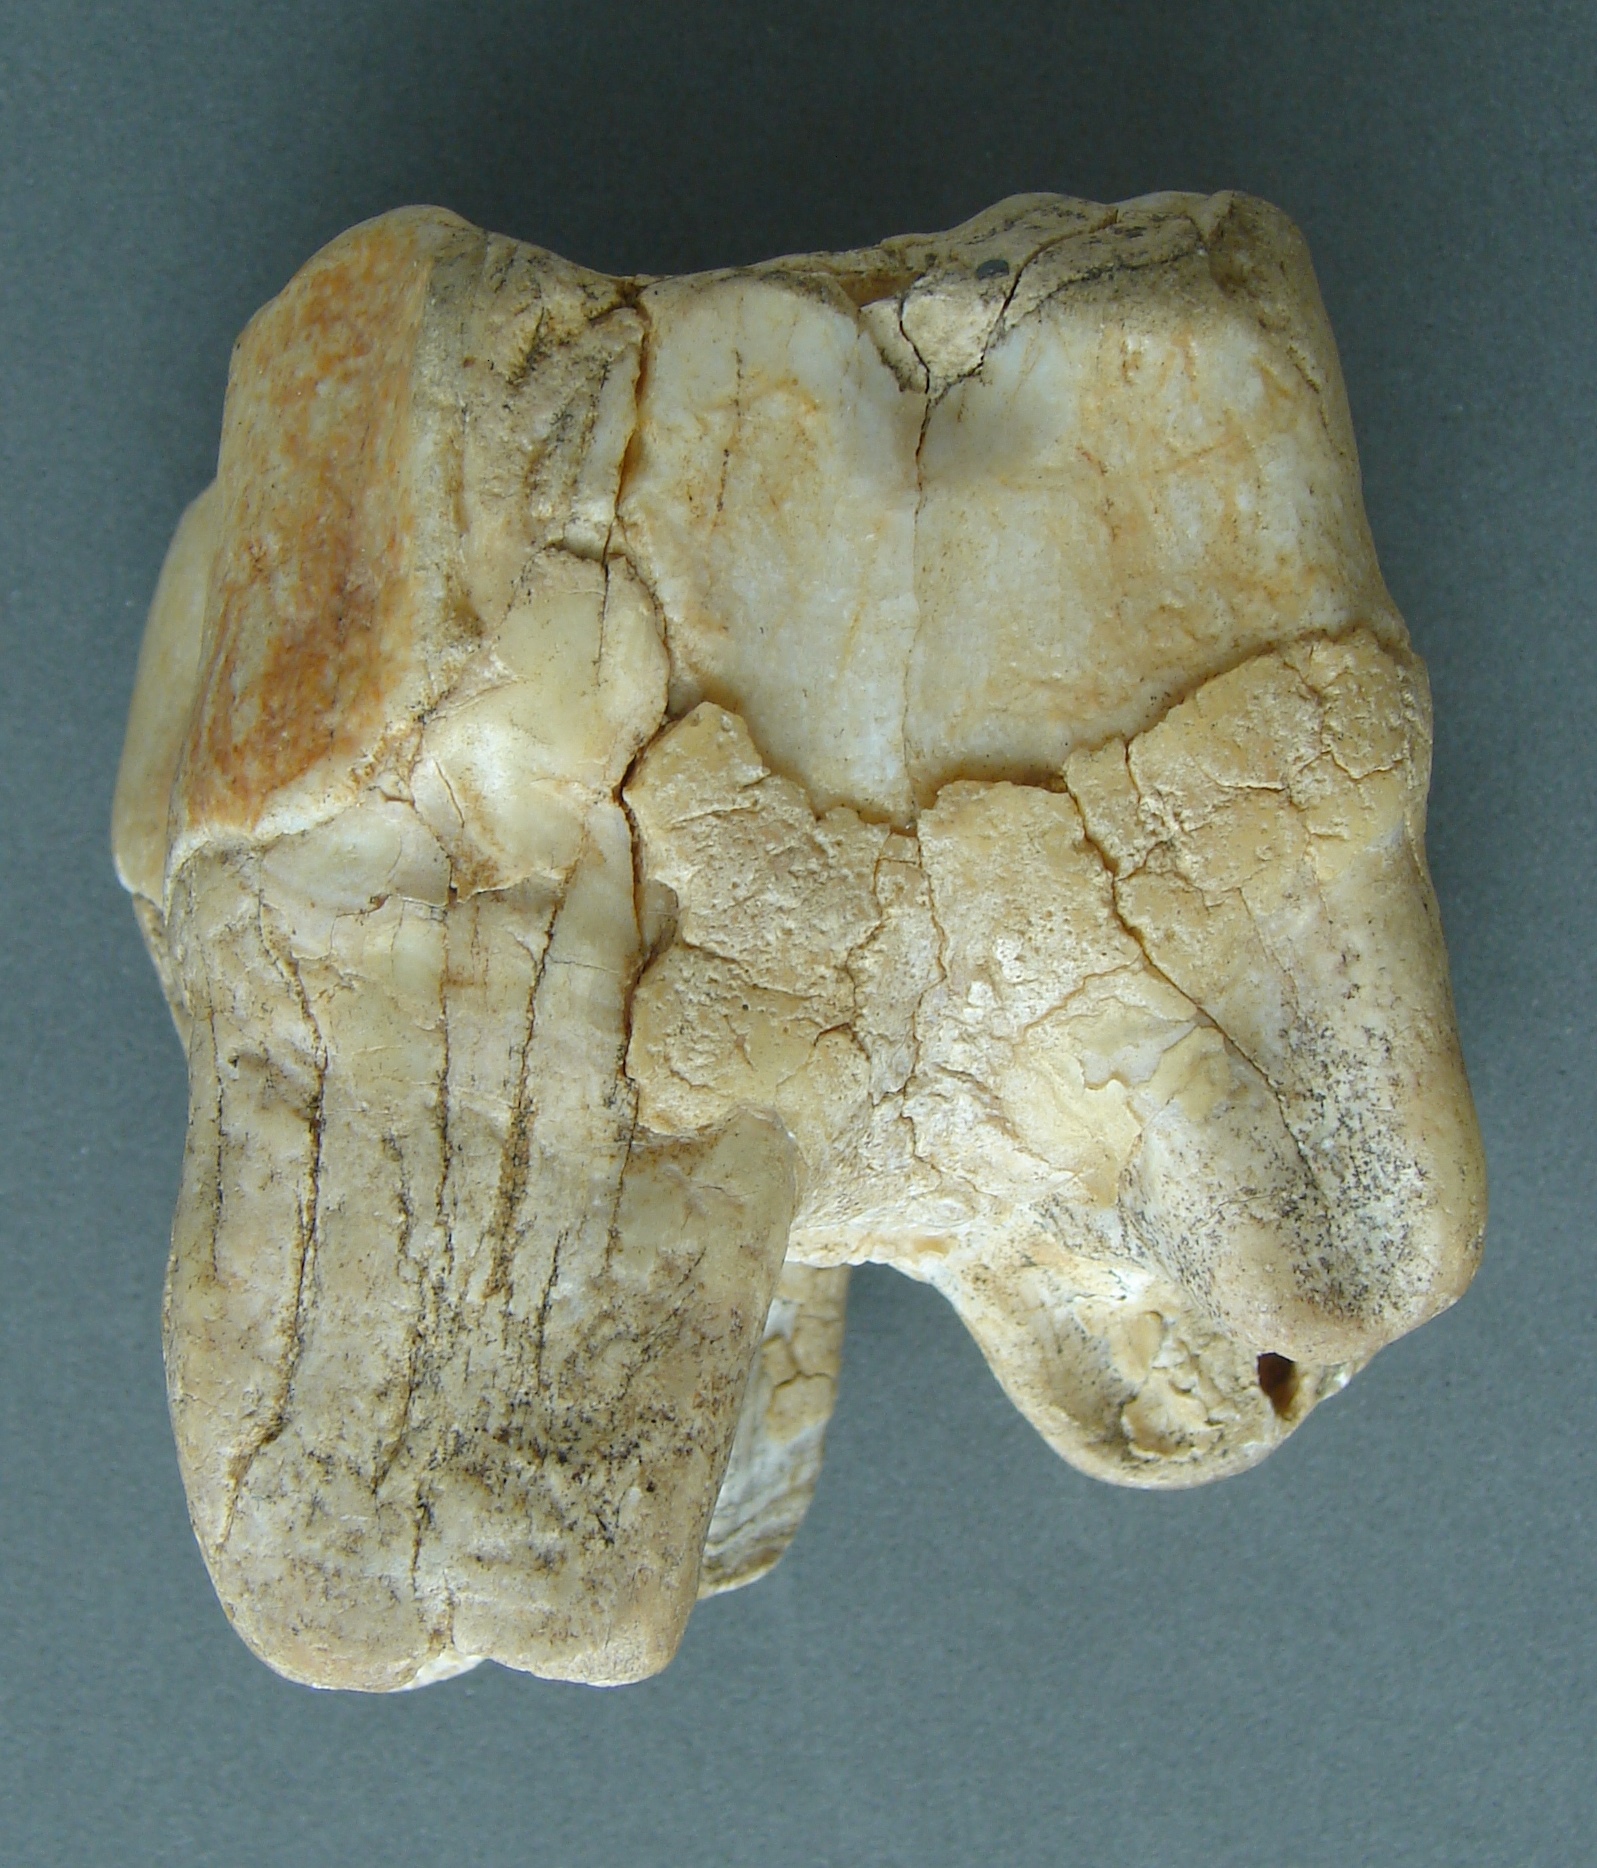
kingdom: Animalia
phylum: Chordata
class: Mammalia
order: Perissodactyla
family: Rhinocerotidae
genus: Rhinoceros
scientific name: Rhinoceros
